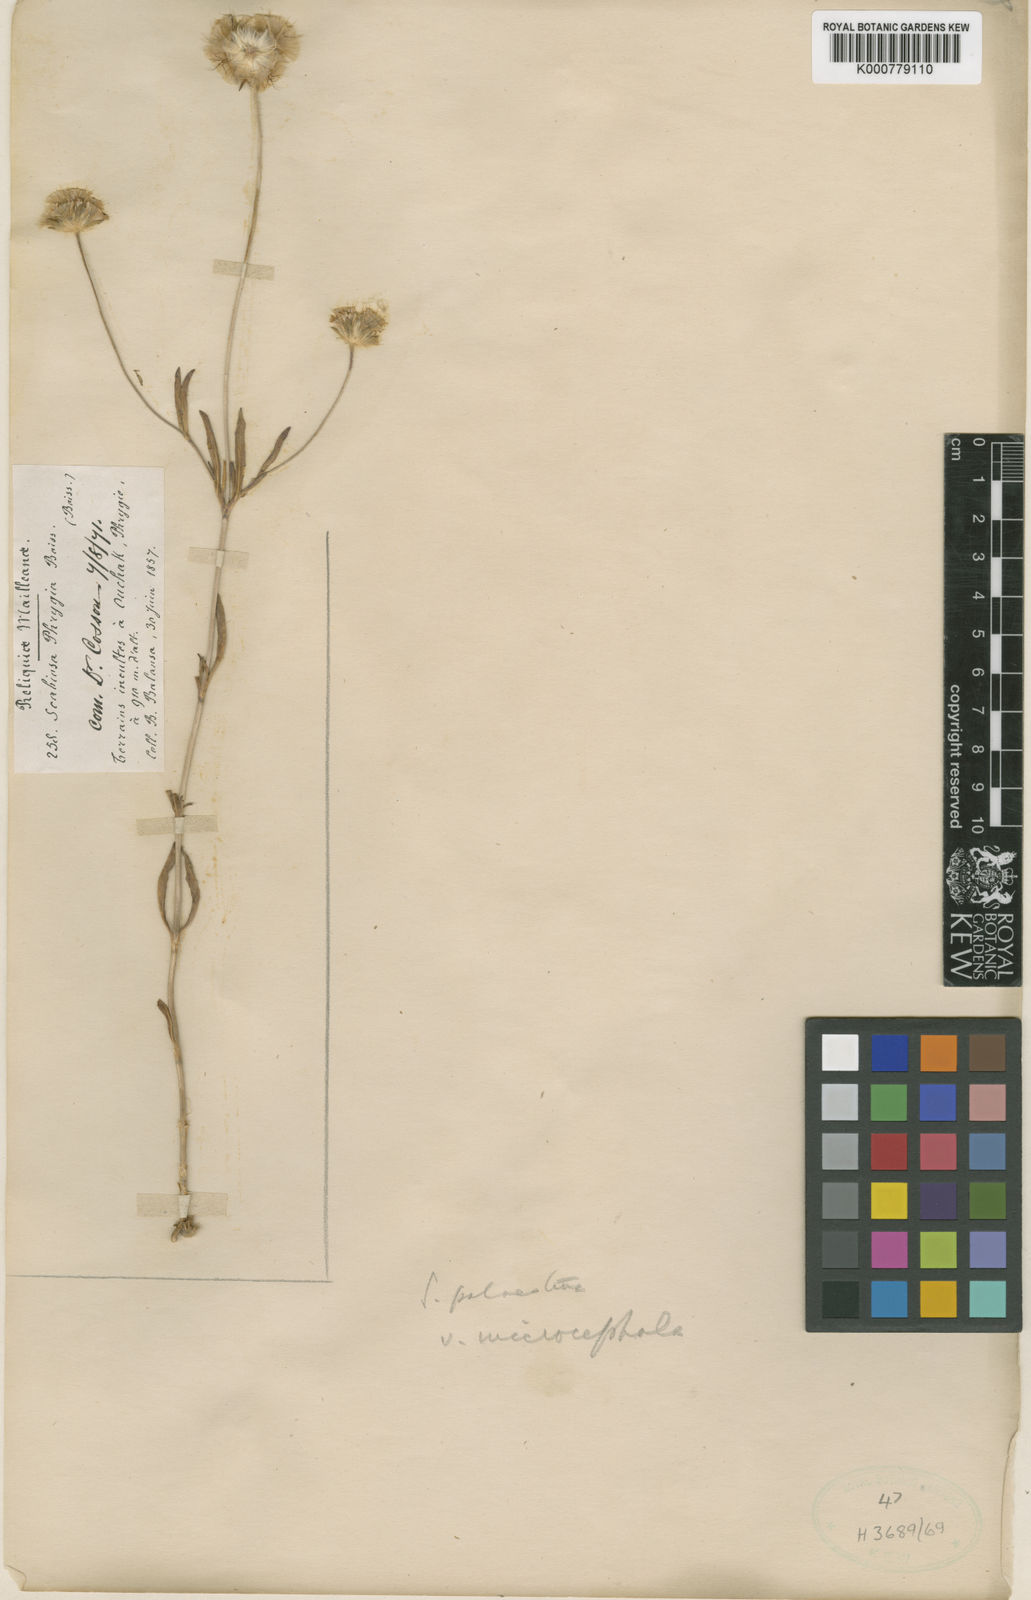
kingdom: Plantae
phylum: Tracheophyta
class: Magnoliopsida
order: Dipsacales
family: Caprifoliaceae
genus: Lomelosia
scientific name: Lomelosia palaestina
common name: Balkan pincushions
